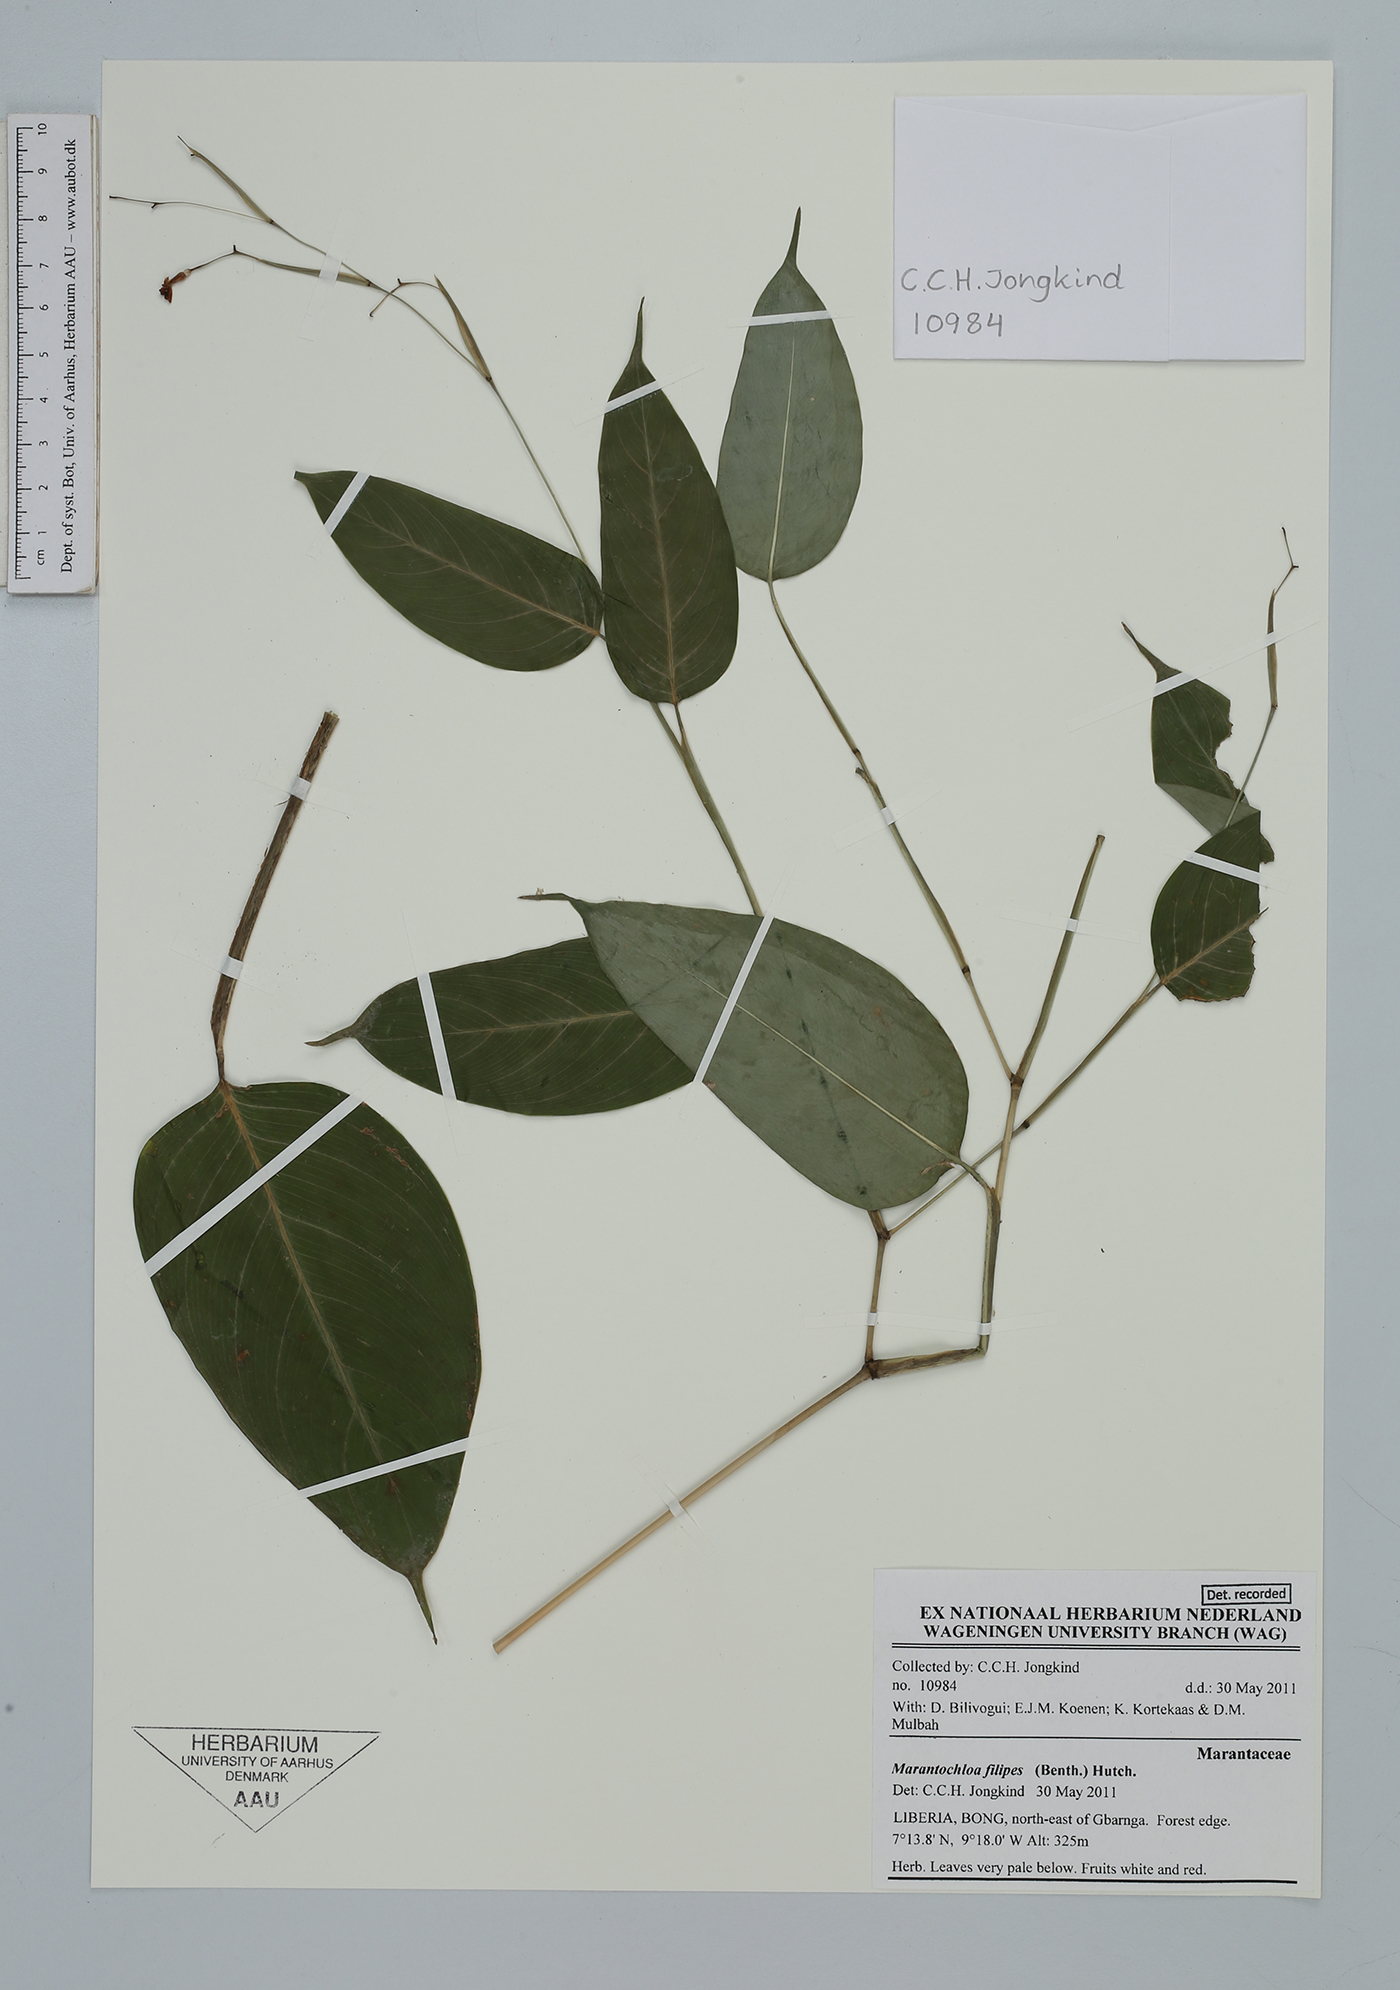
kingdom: Plantae
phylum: Tracheophyta
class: Liliopsida
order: Zingiberales
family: Marantaceae
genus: Marantochloa
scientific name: Marantochloa filipes
